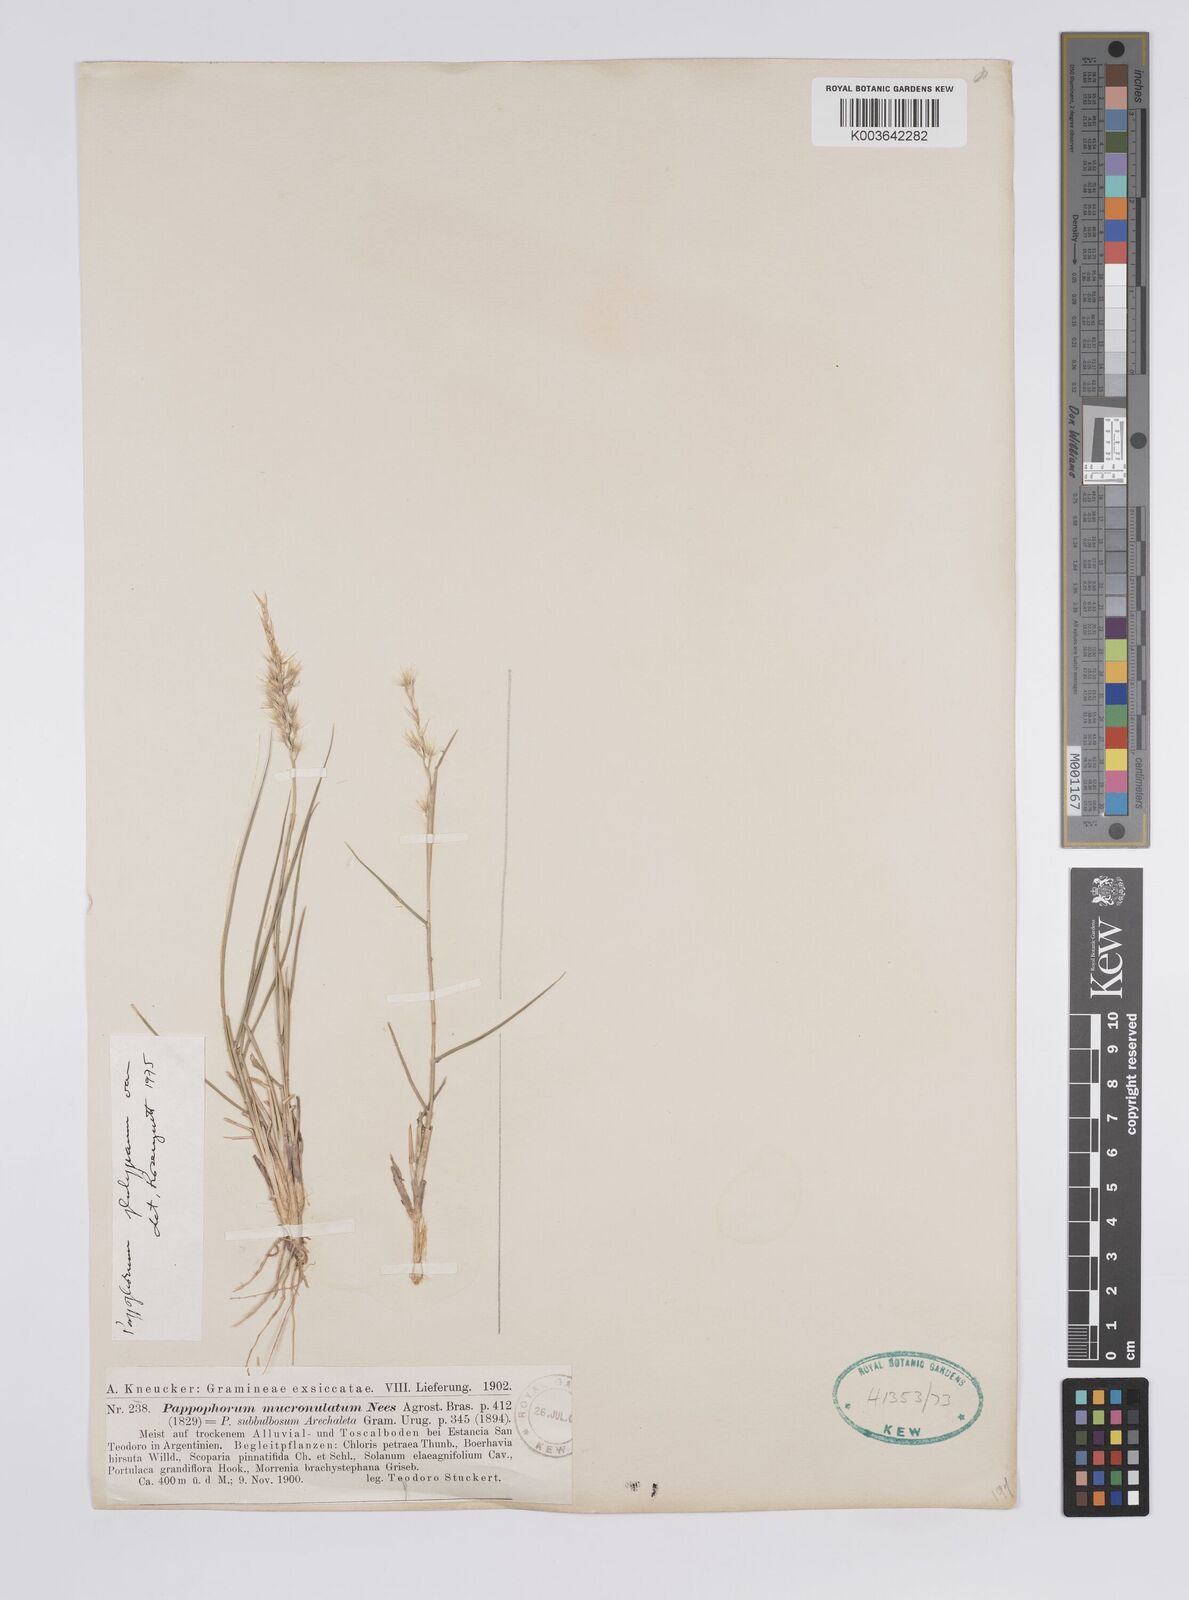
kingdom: Plantae
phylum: Tracheophyta
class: Liliopsida
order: Poales
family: Poaceae
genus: Pappophorum
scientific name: Pappophorum philippianum
